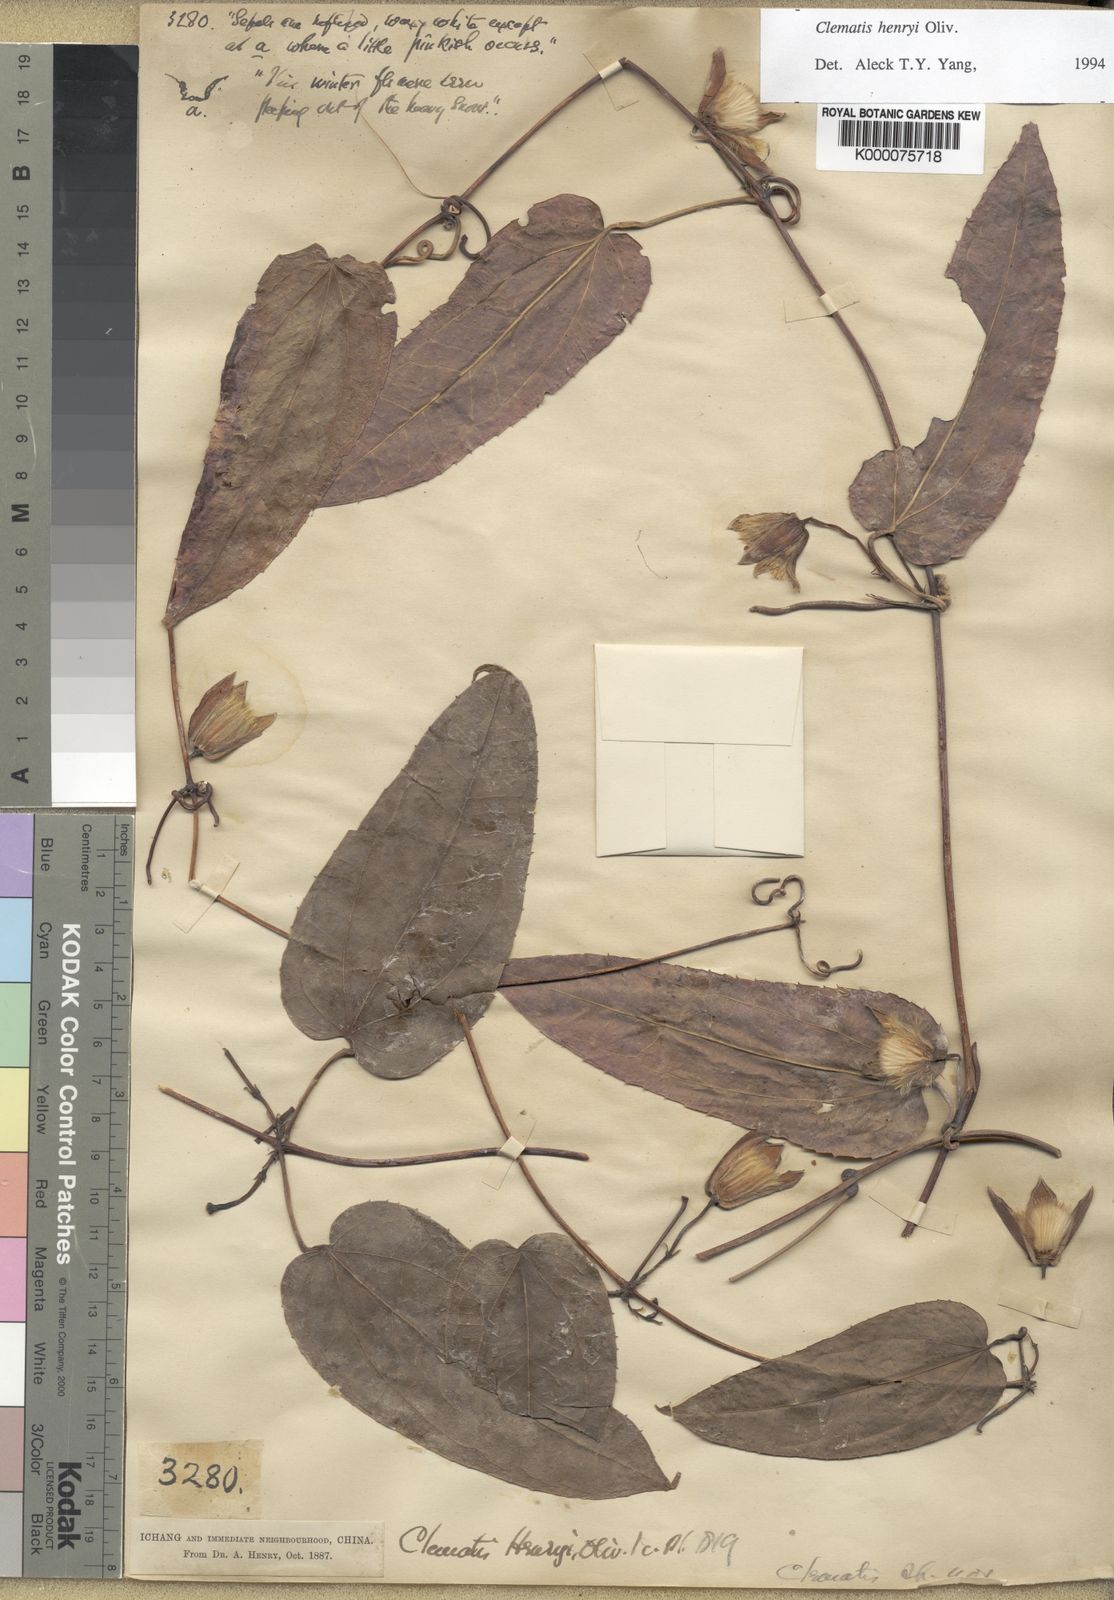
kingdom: Plantae
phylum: Tracheophyta
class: Magnoliopsida
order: Ranunculales
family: Ranunculaceae
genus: Clematis
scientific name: Clematis hayatae
